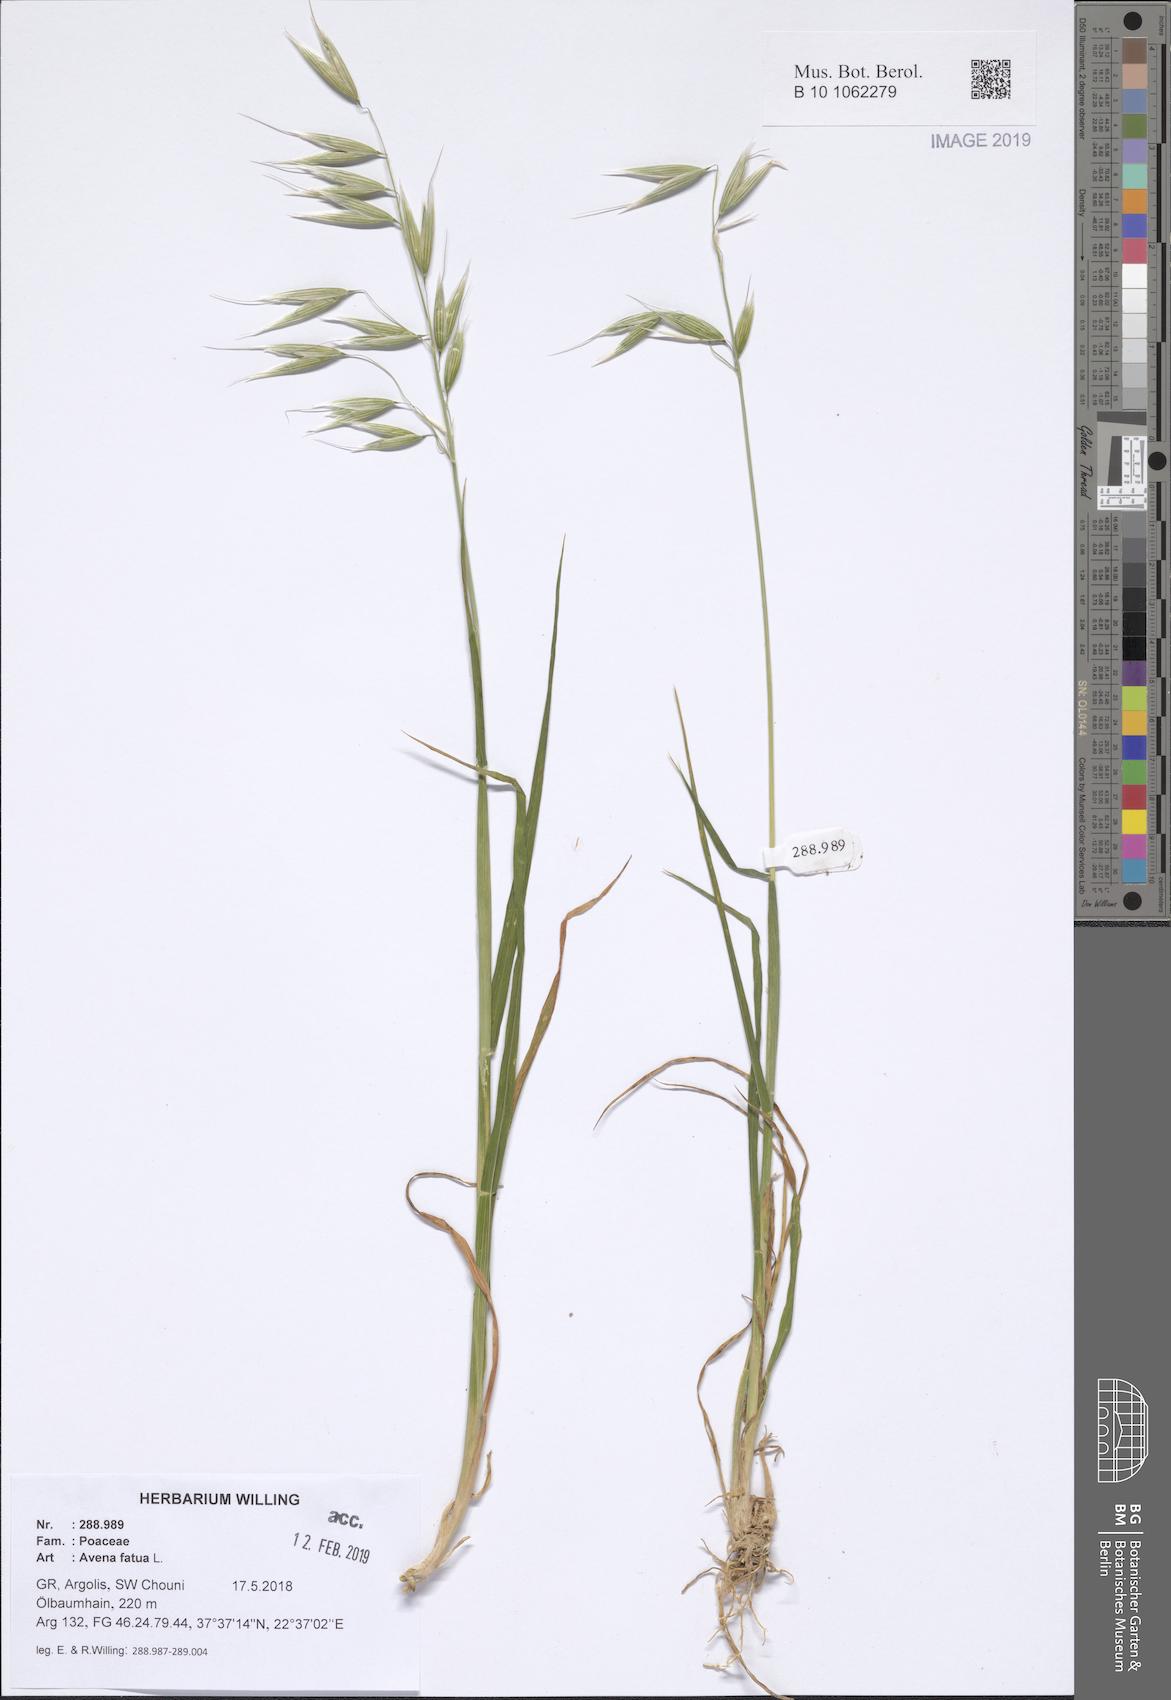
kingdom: Plantae
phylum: Tracheophyta
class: Liliopsida
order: Poales
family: Poaceae
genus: Avena
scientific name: Avena fatua
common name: Wild oat
